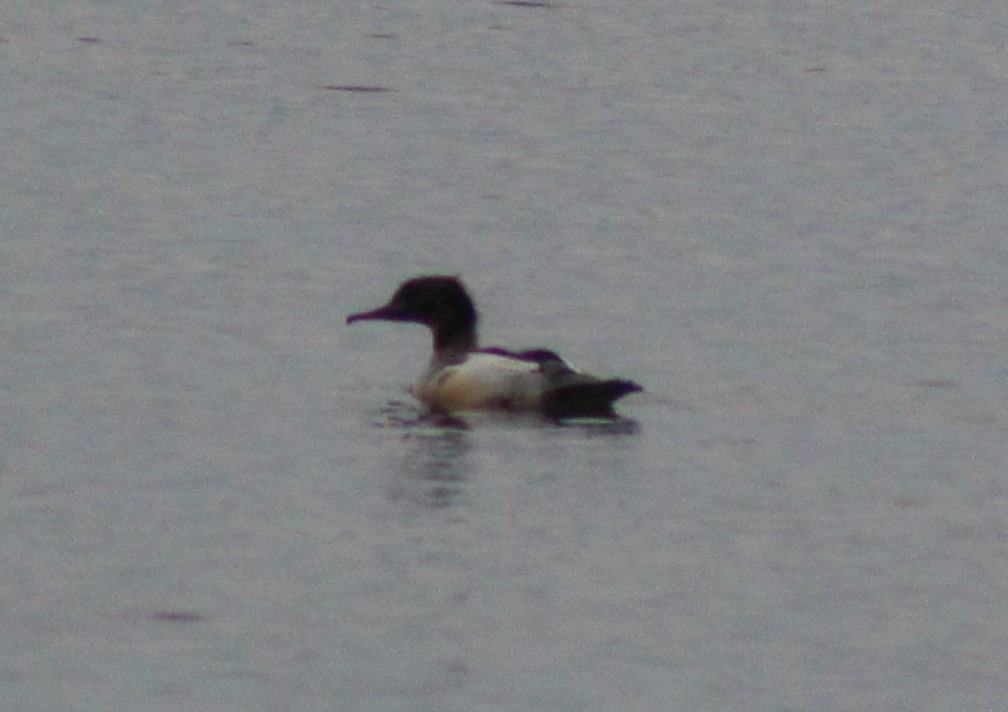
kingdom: Animalia
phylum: Chordata
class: Aves
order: Anseriformes
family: Anatidae
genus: Mergus
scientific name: Mergus merganser
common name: Stor skallesluger
